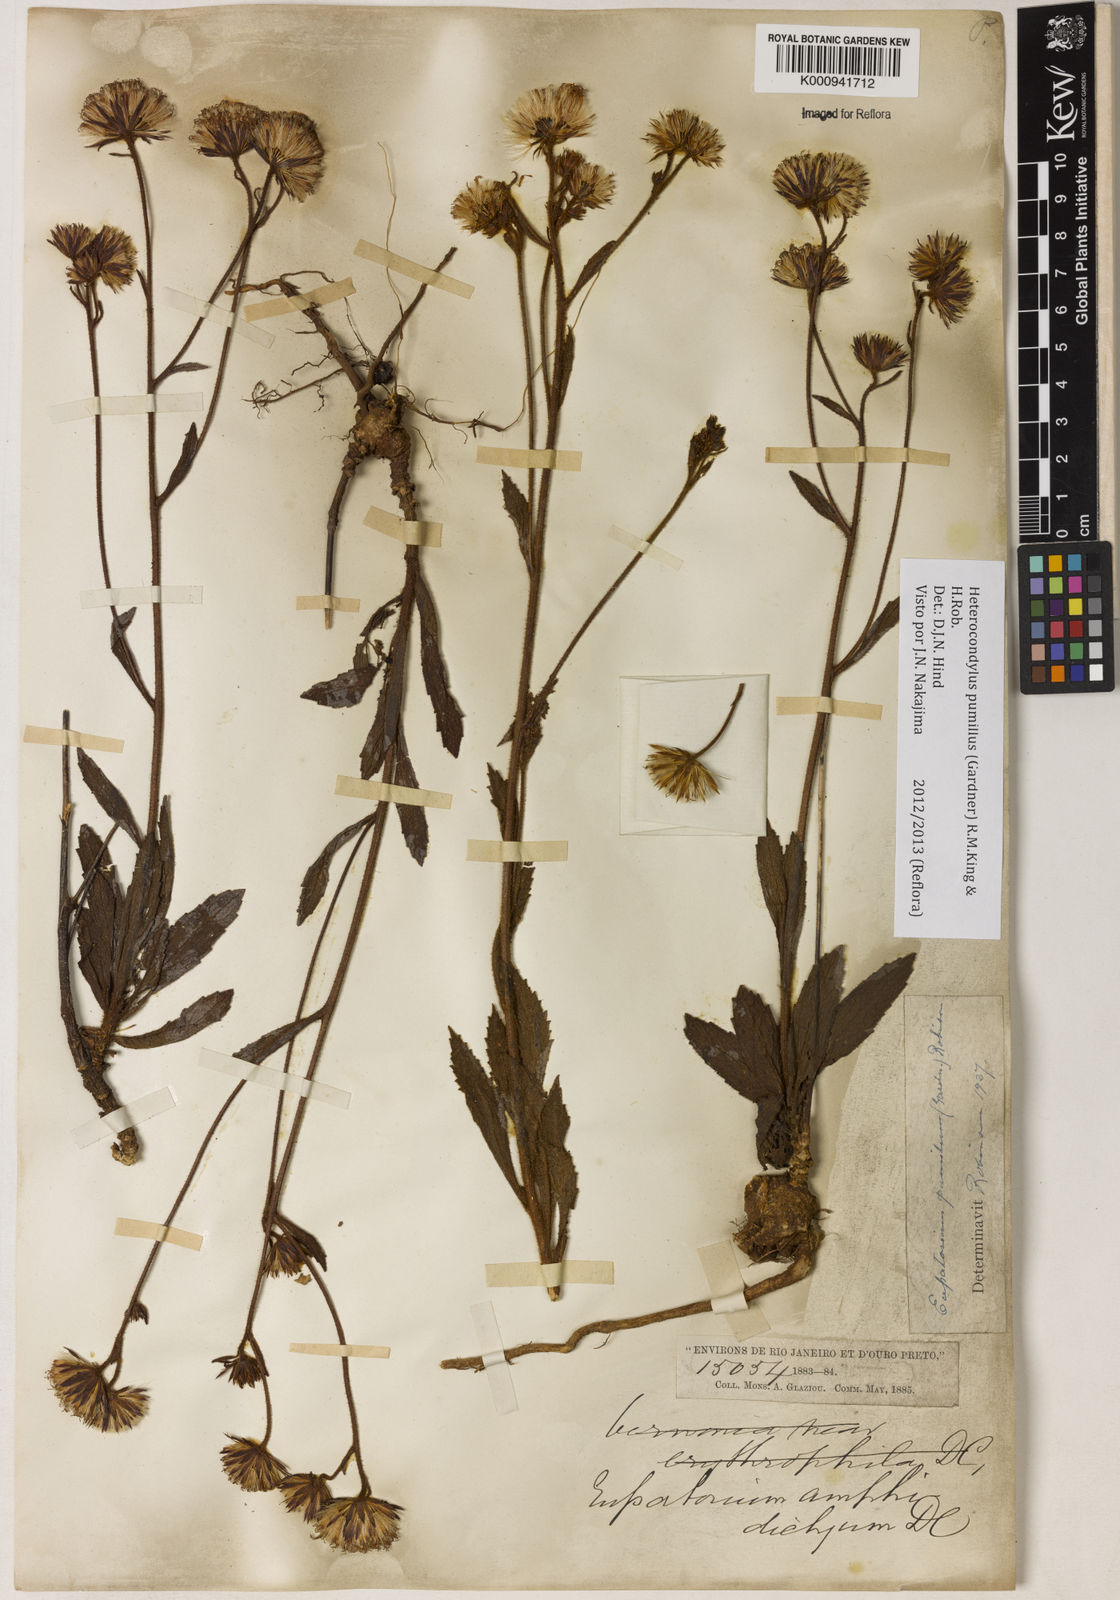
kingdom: Plantae
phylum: Tracheophyta
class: Magnoliopsida
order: Asterales
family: Asteraceae
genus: Heterocondylus
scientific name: Heterocondylus pumilus
